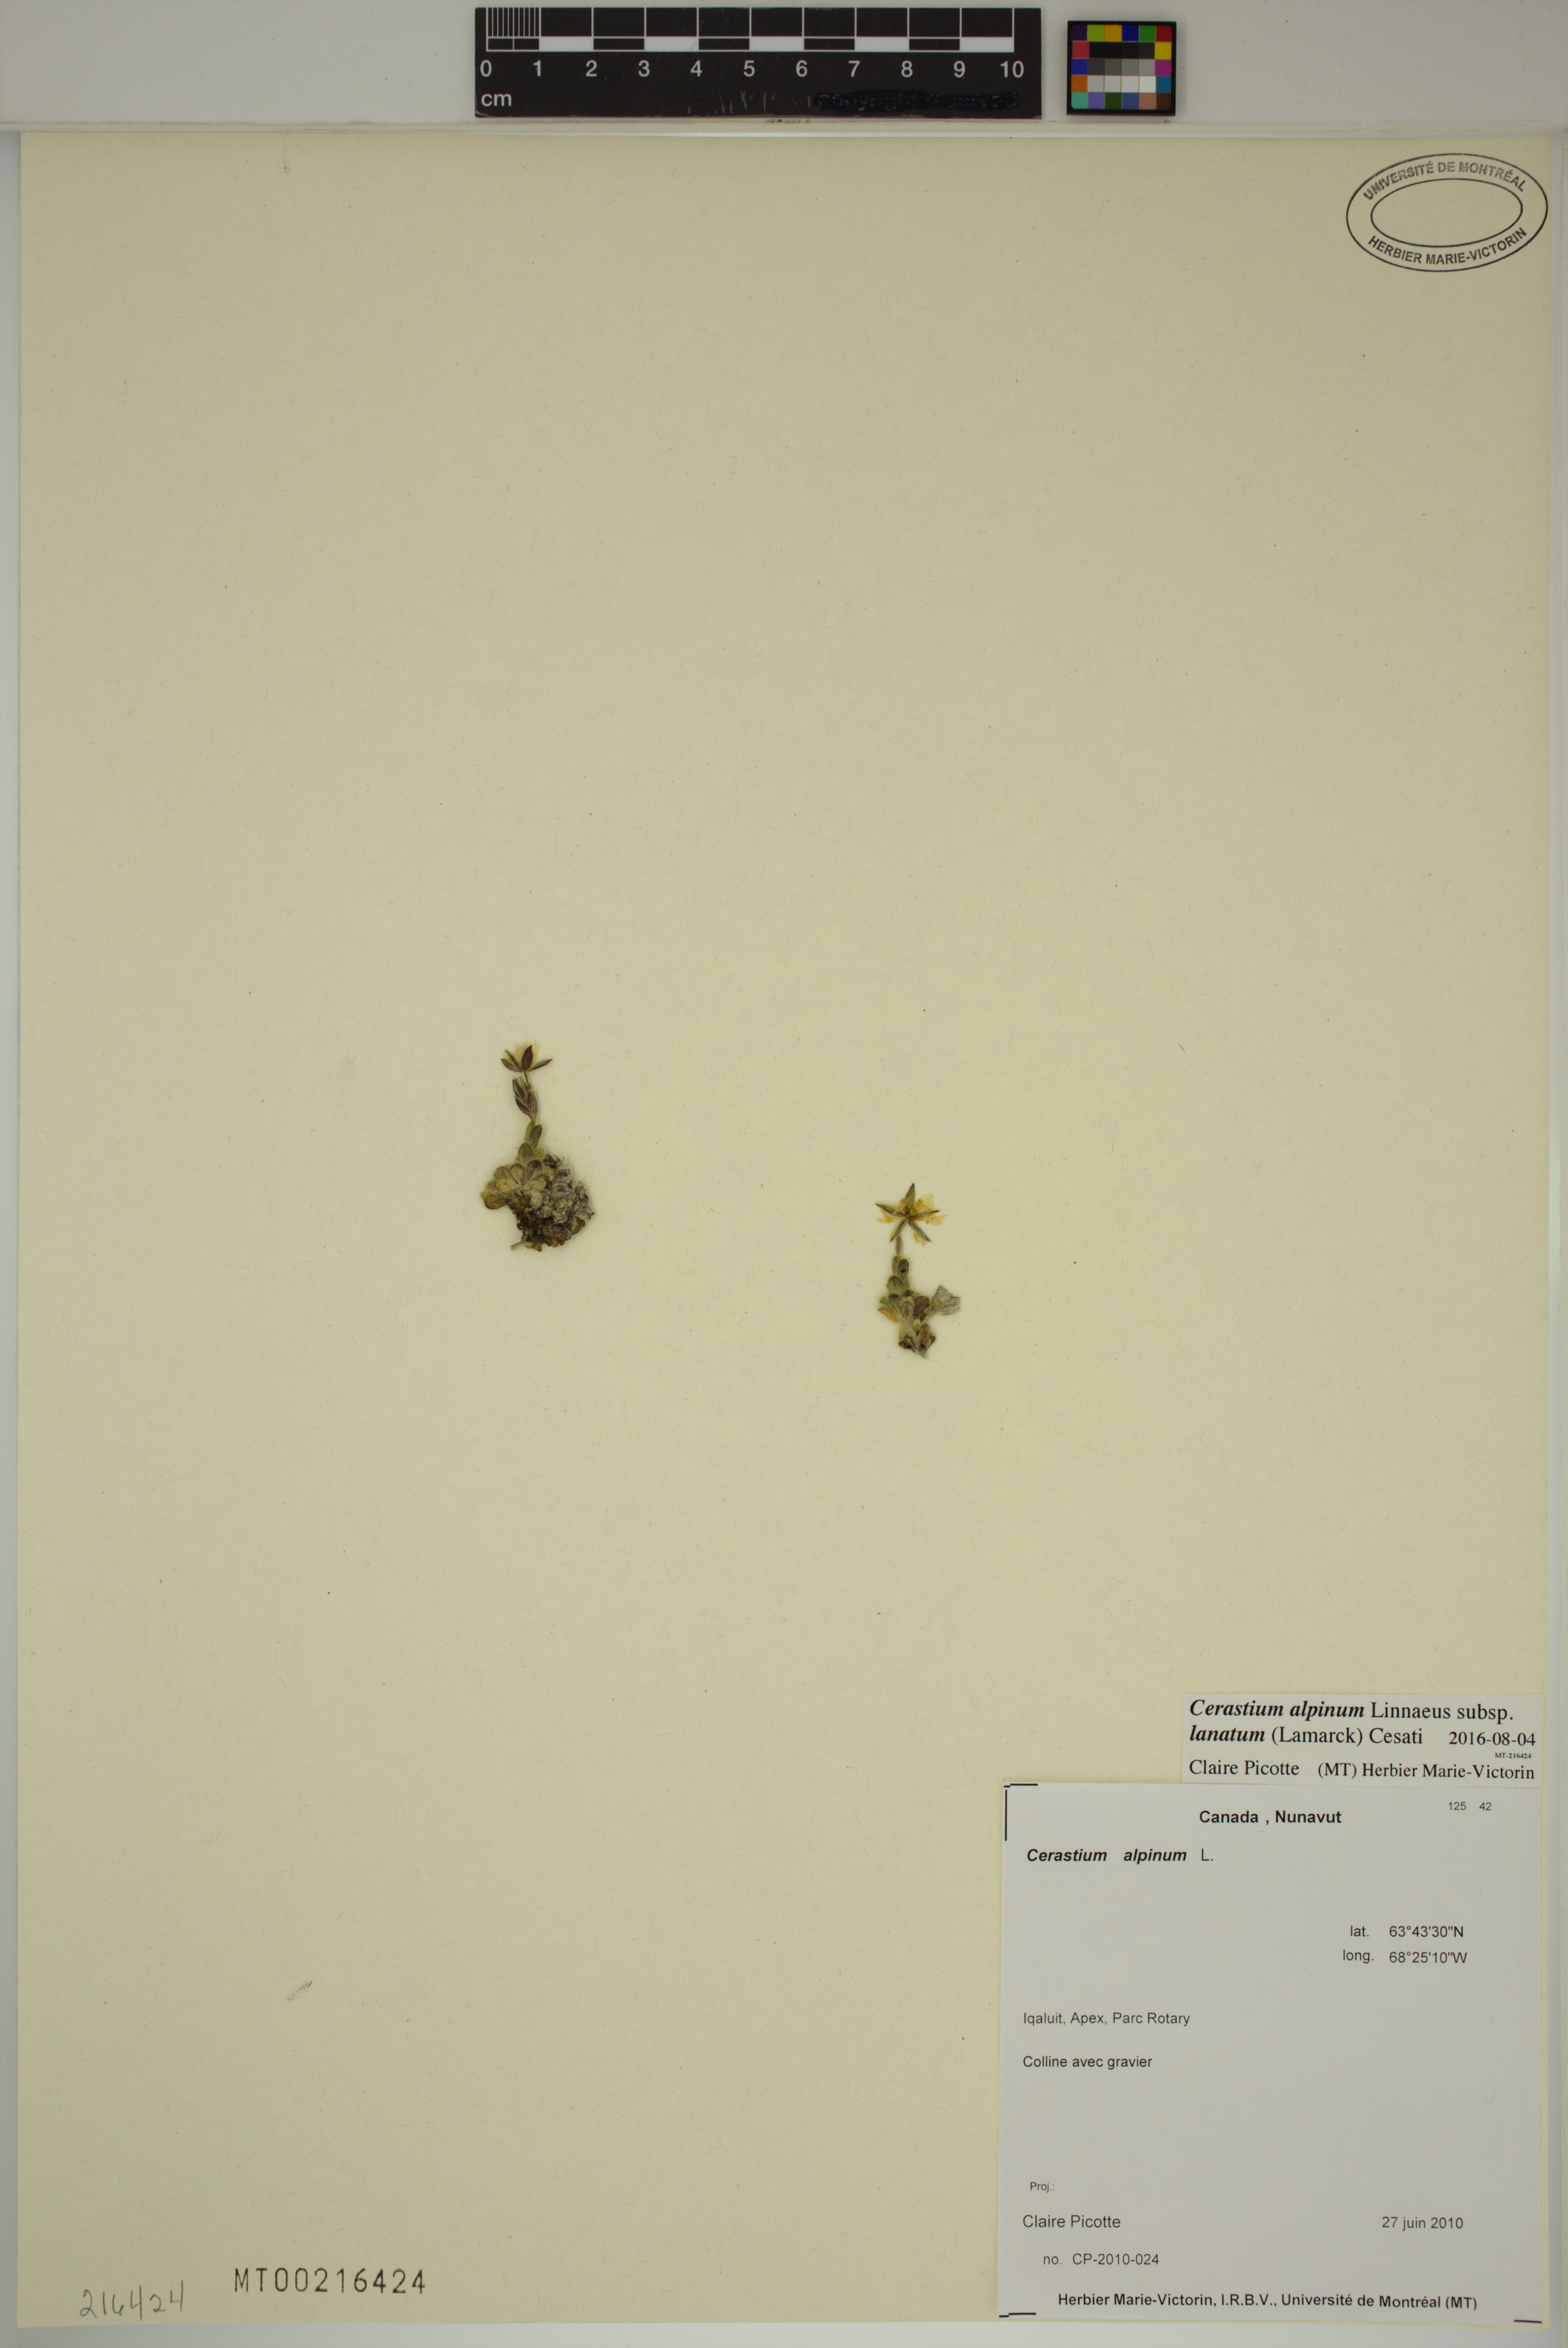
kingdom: Plantae
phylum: Tracheophyta
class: Magnoliopsida
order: Caryophyllales
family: Caryophyllaceae
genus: Cerastium
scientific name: Cerastium alpinum
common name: Alpine mouse-ear
